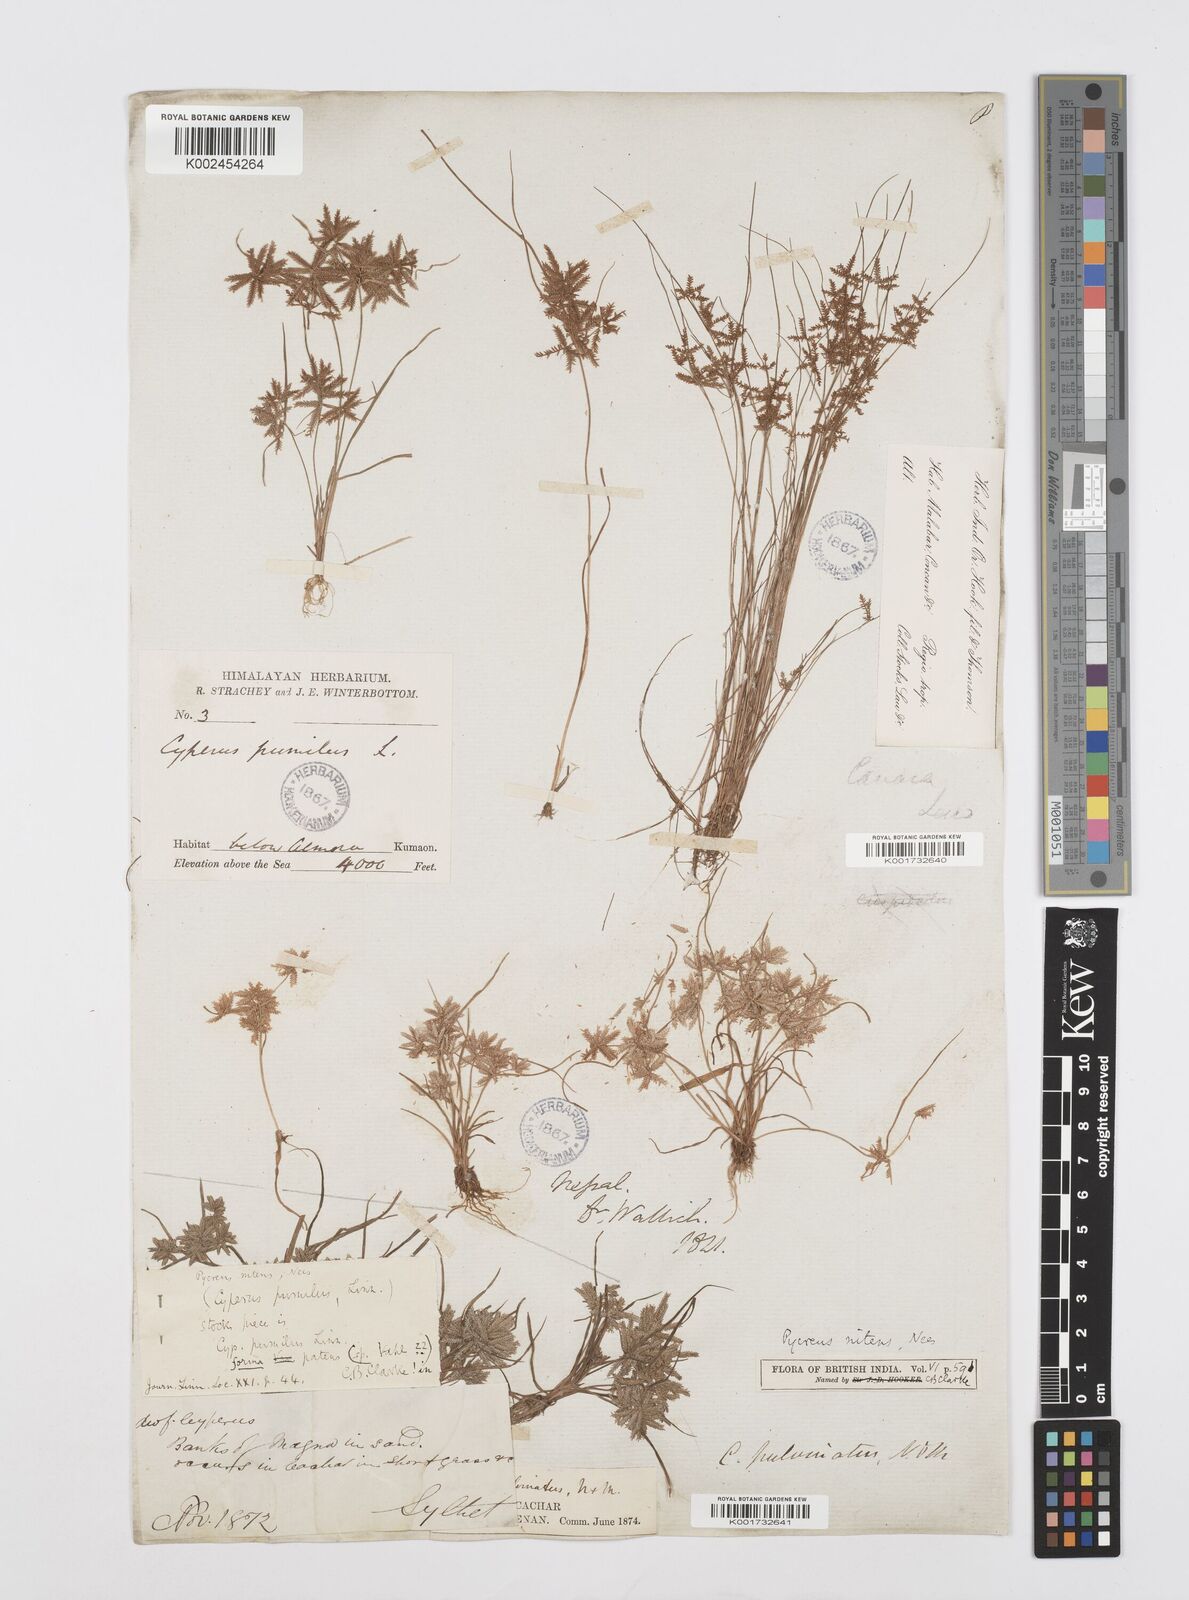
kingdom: Plantae
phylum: Tracheophyta
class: Liliopsida
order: Poales
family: Cyperaceae
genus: Cyperus
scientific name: Cyperus pumilus
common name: Low flatsedge
